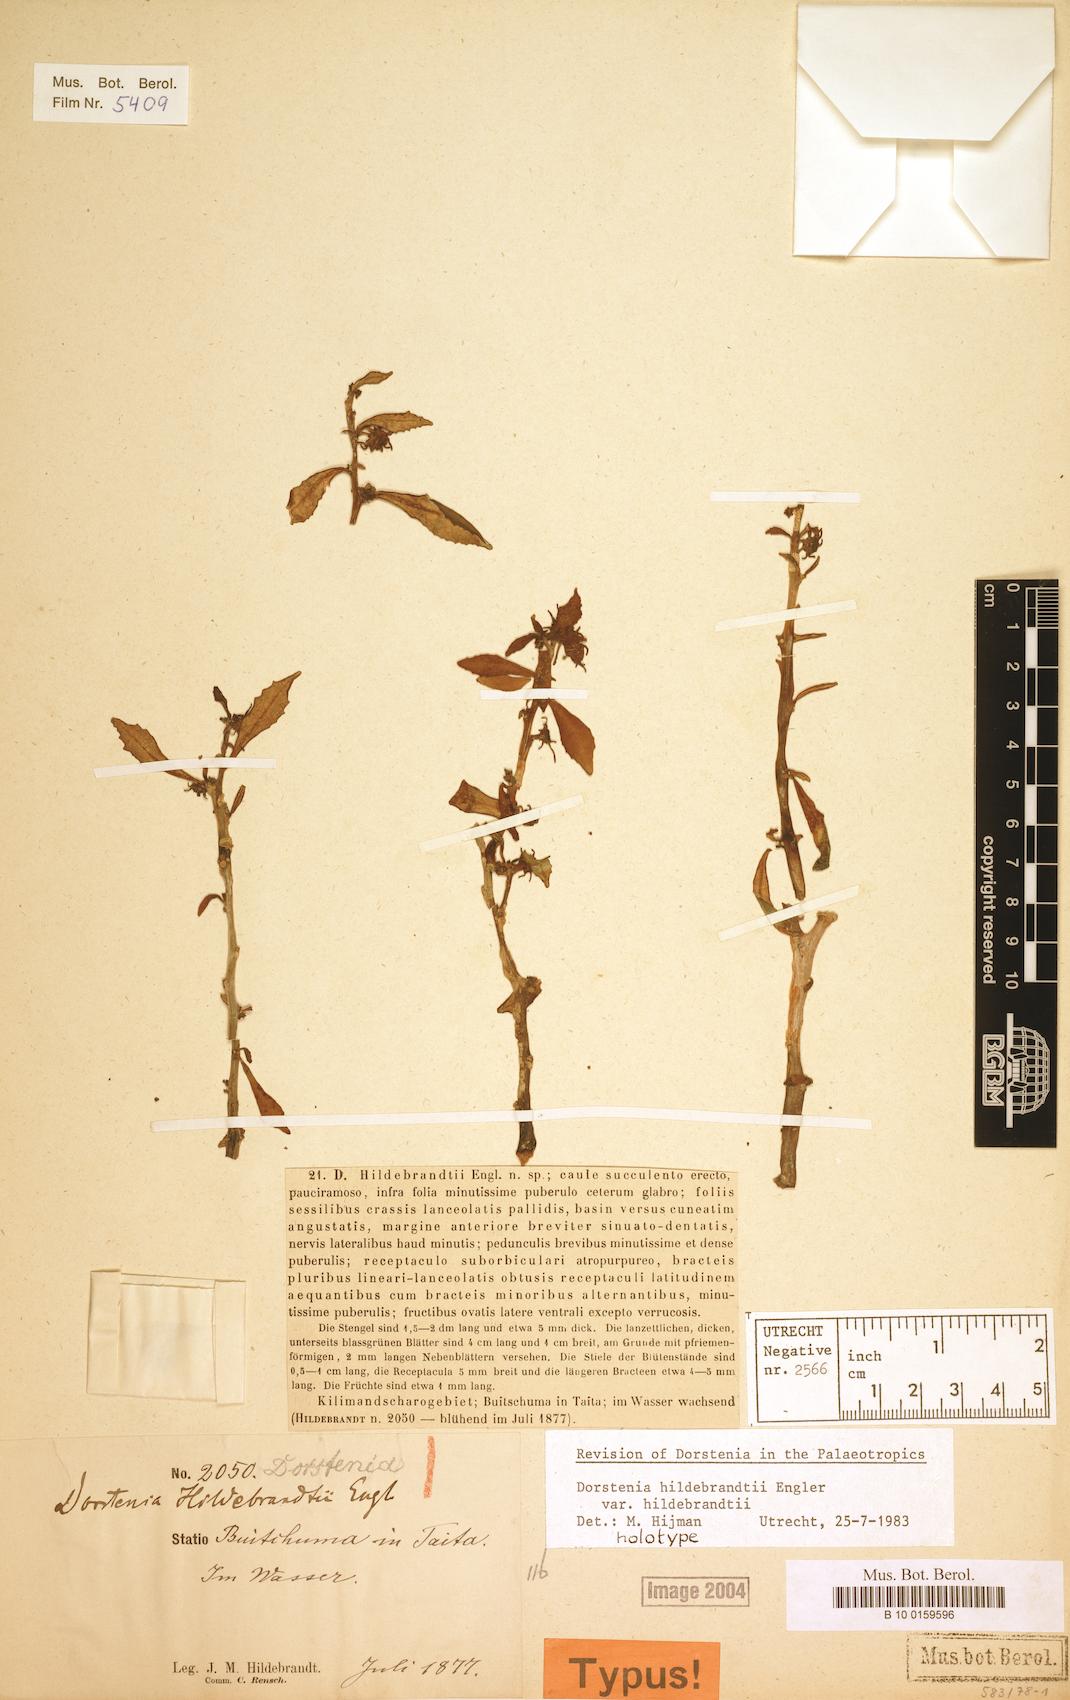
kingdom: Plantae
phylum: Tracheophyta
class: Magnoliopsida
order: Rosales
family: Moraceae
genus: Dorstenia
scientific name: Dorstenia hildebrandtii
